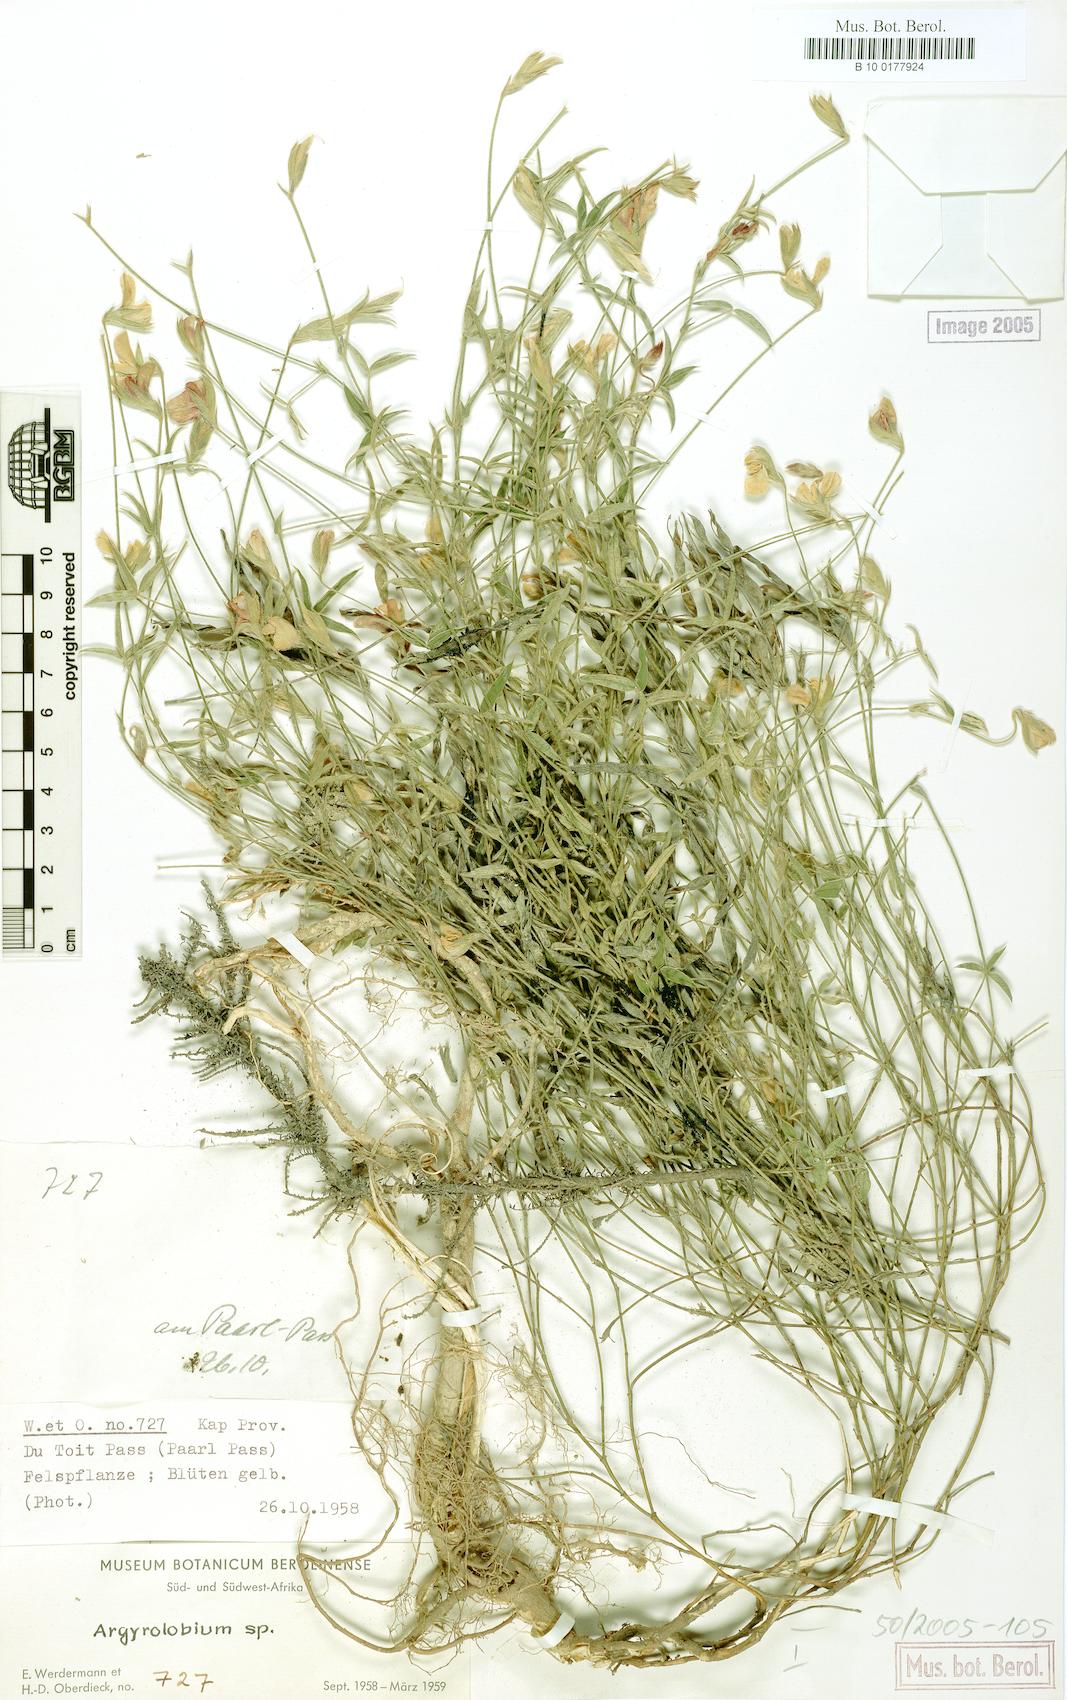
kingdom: Plantae
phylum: Tracheophyta
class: Magnoliopsida
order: Fabales
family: Fabaceae
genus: Argyrolobium
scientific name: Argyrolobium lunare
